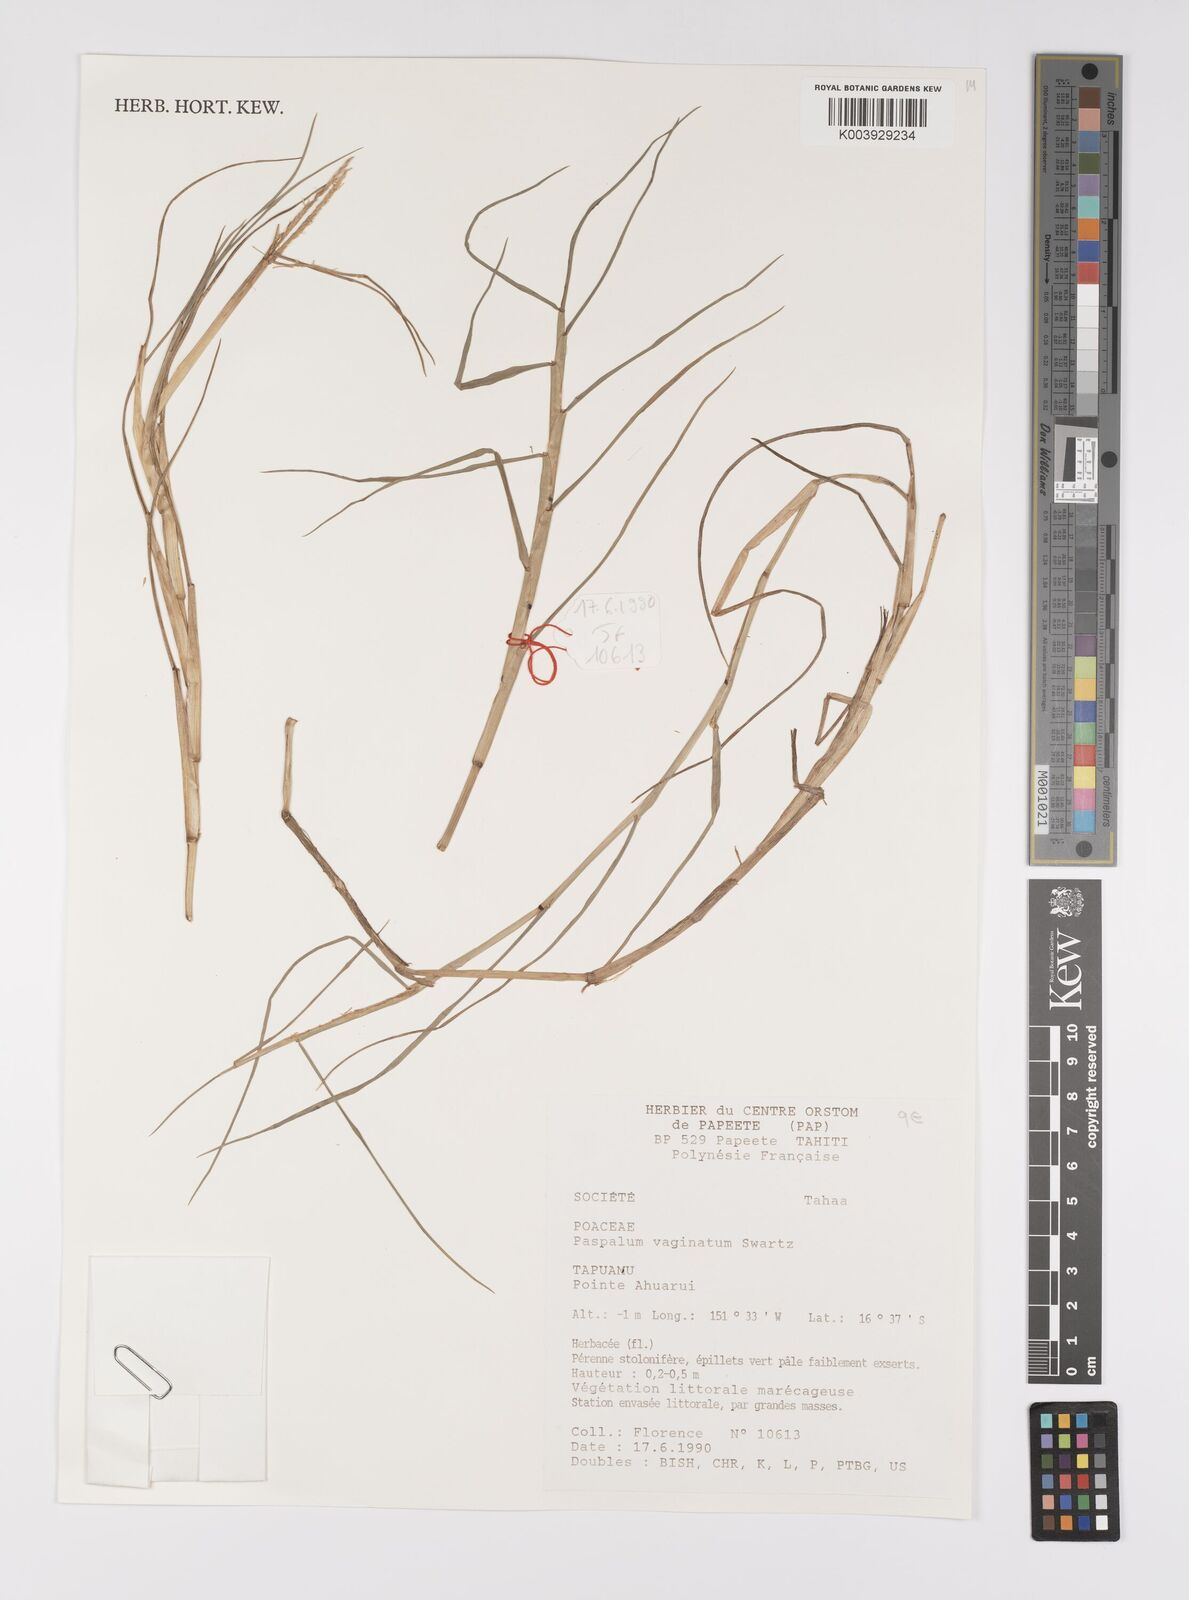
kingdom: Plantae
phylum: Tracheophyta
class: Liliopsida
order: Poales
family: Poaceae
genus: Paspalum
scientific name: Paspalum vaginatum
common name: Seashore paspalum
